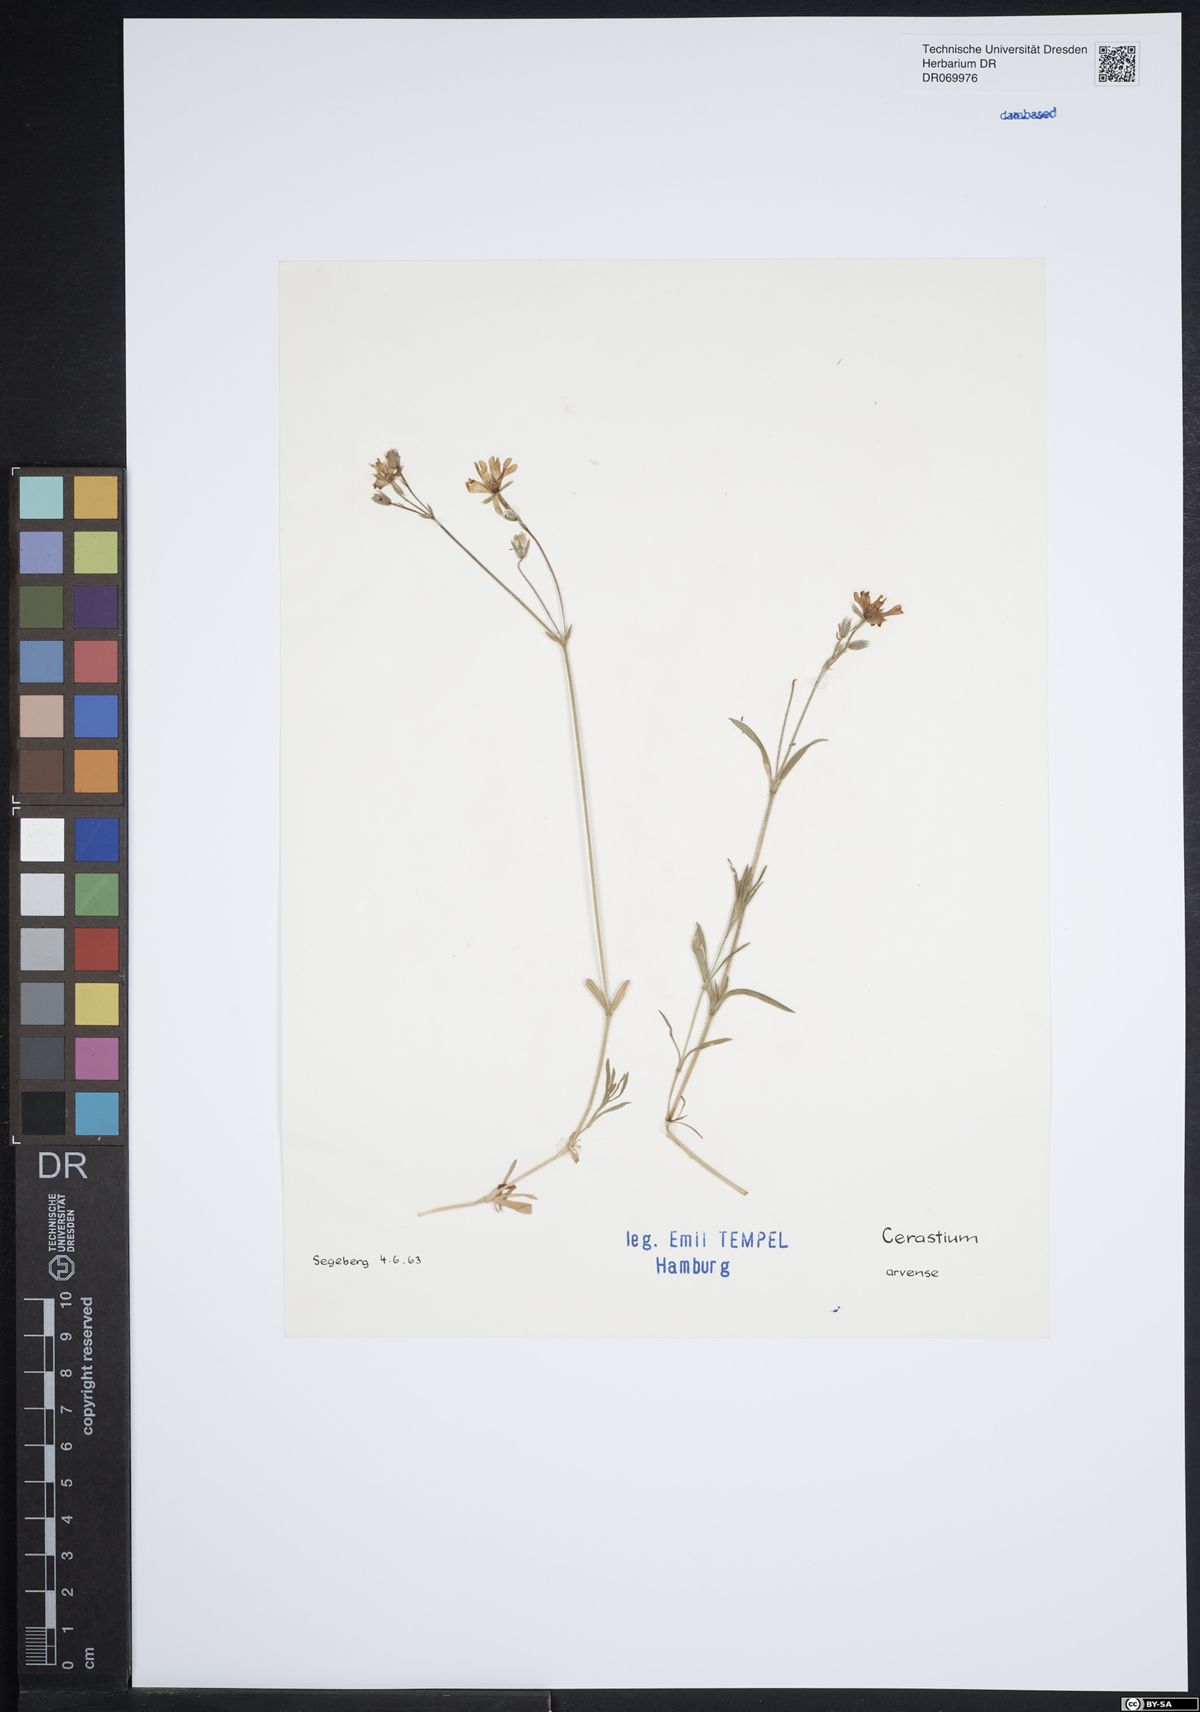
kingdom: Plantae
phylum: Tracheophyta
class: Magnoliopsida
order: Caryophyllales
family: Caryophyllaceae
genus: Cerastium
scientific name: Cerastium arvense
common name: Field mouse-ear
